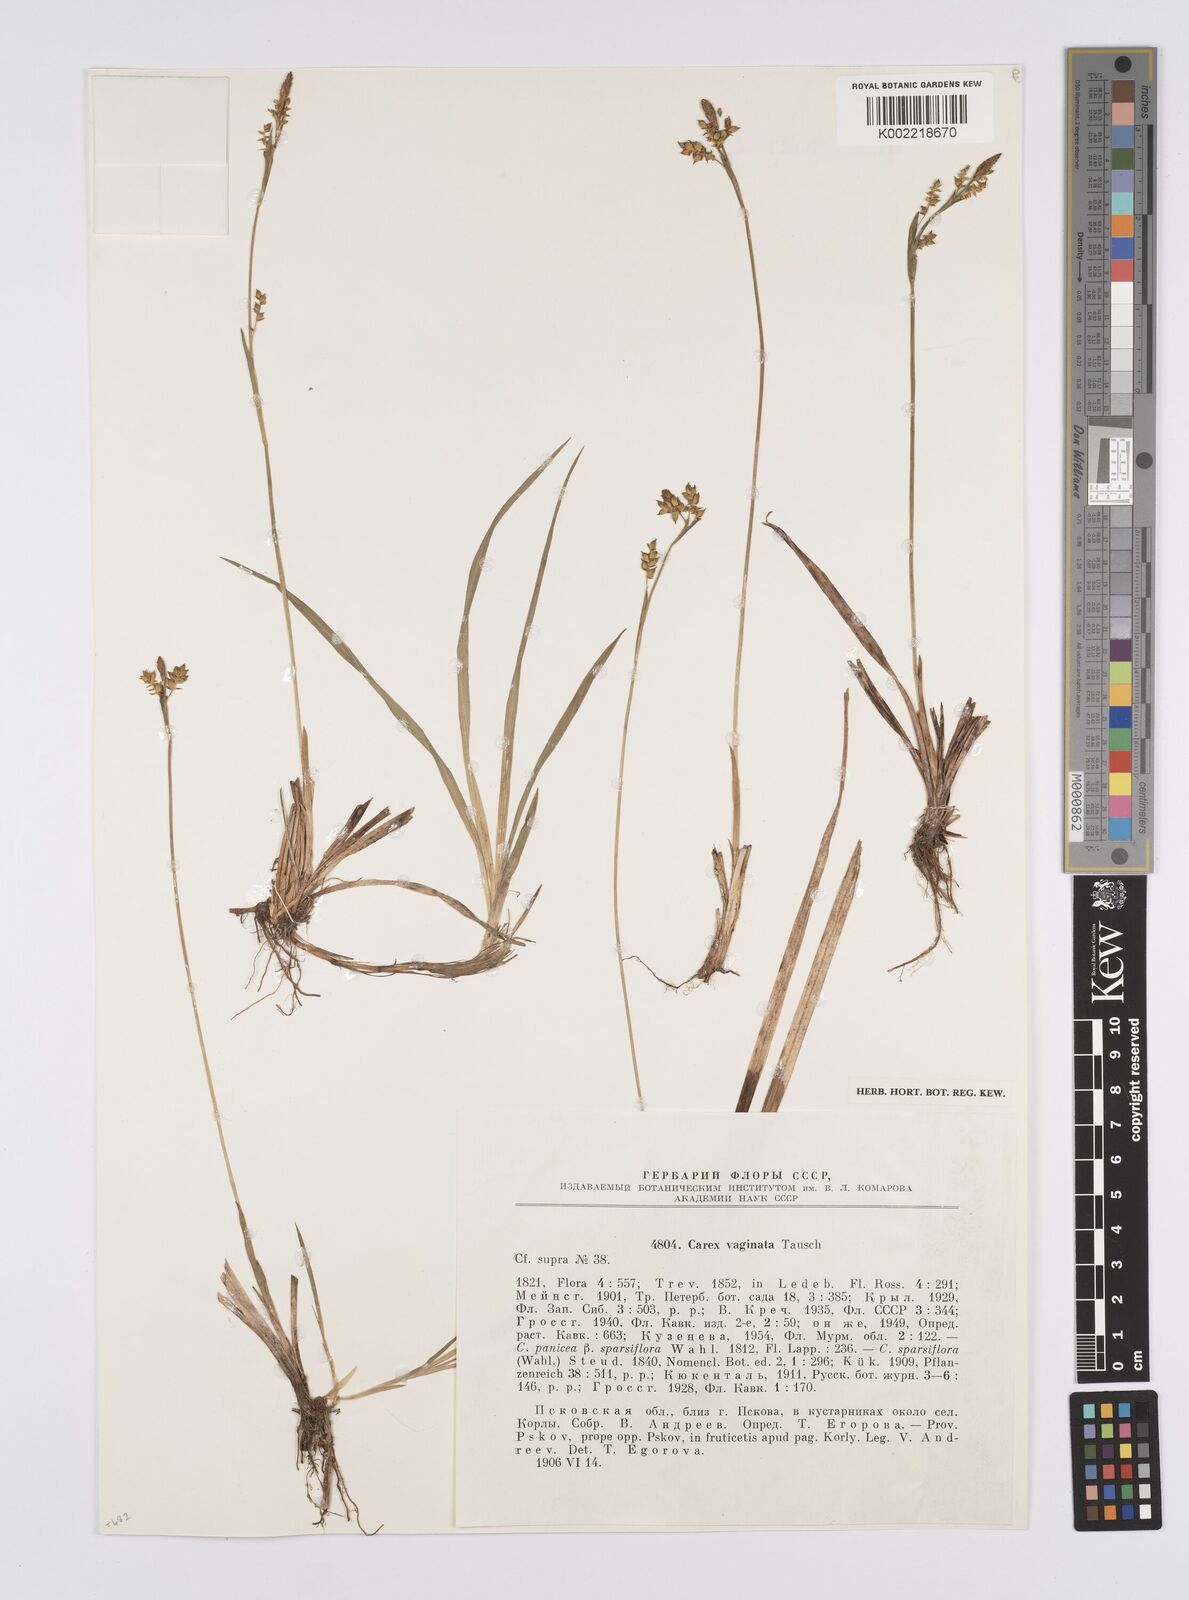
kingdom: Plantae
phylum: Tracheophyta
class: Liliopsida
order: Poales
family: Cyperaceae
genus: Carex
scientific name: Carex vaginata
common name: Sheathed sedge
